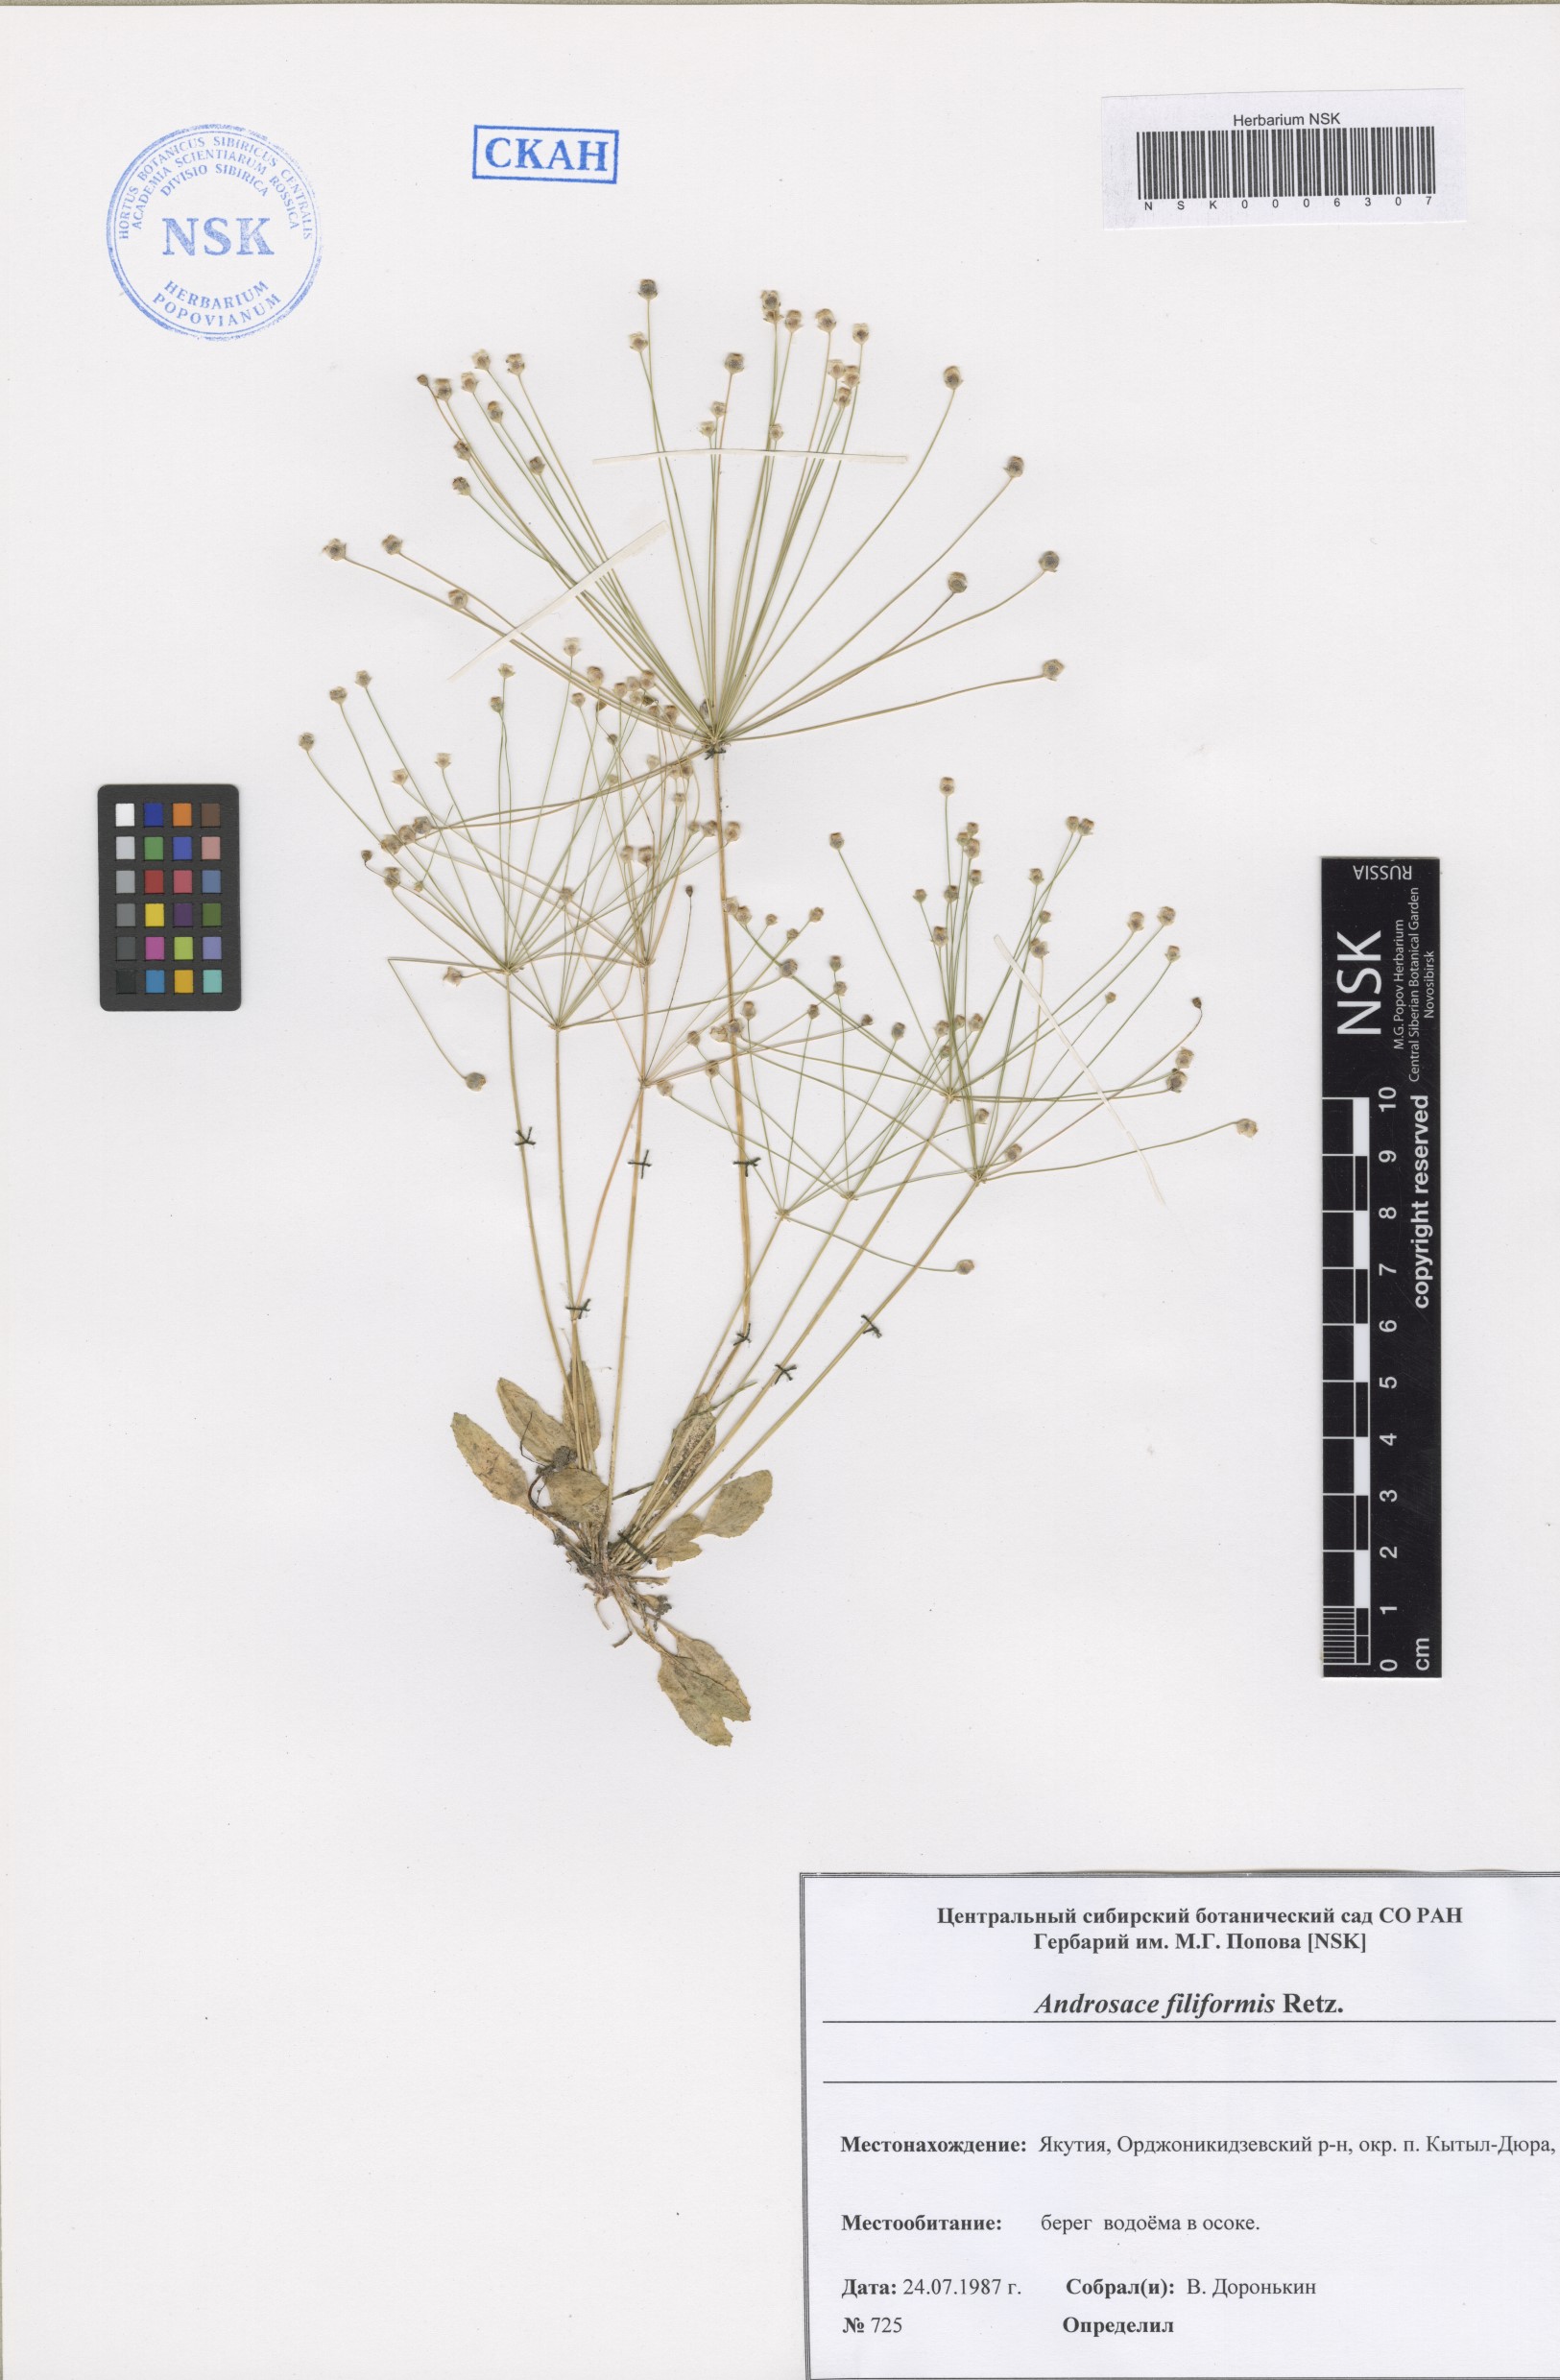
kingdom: Plantae
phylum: Tracheophyta
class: Magnoliopsida
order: Ericales
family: Primulaceae
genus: Androsace
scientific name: Androsace filiformis
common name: Filiform rock jasmine
